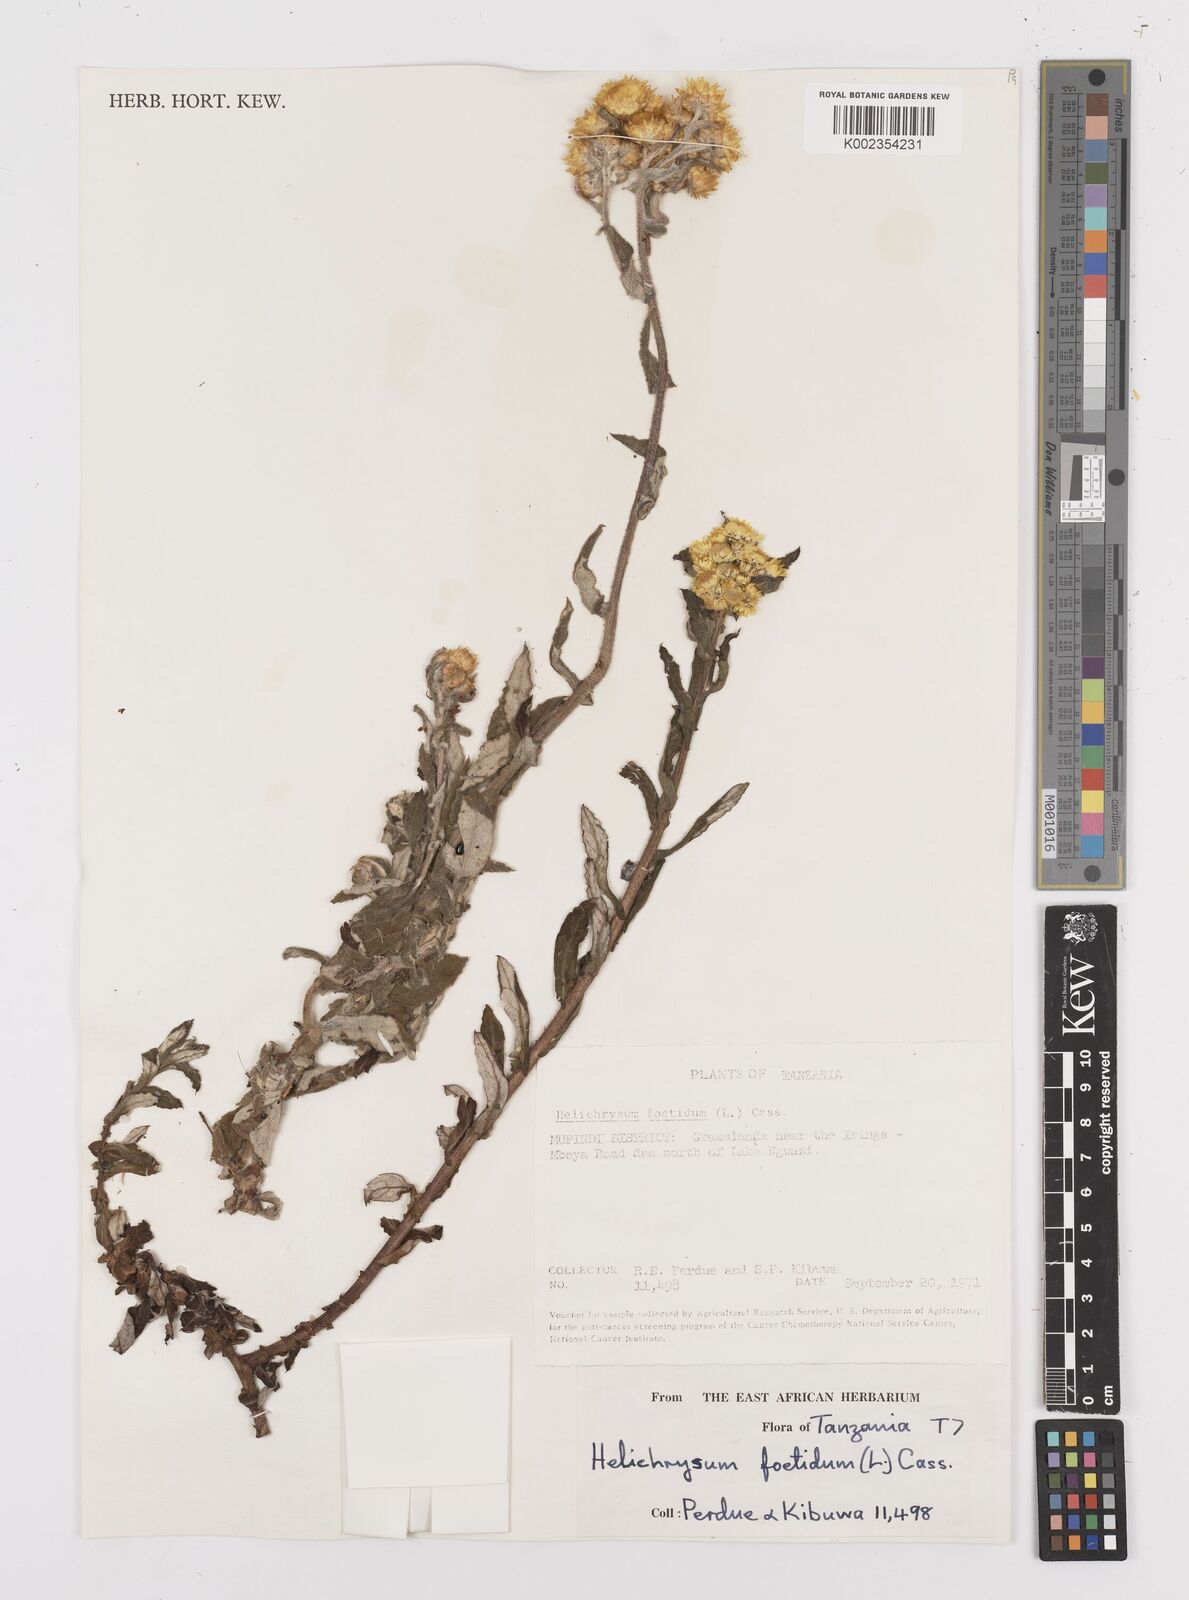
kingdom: Plantae
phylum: Tracheophyta
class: Magnoliopsida
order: Asterales
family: Asteraceae
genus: Helichrysum
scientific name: Helichrysum
